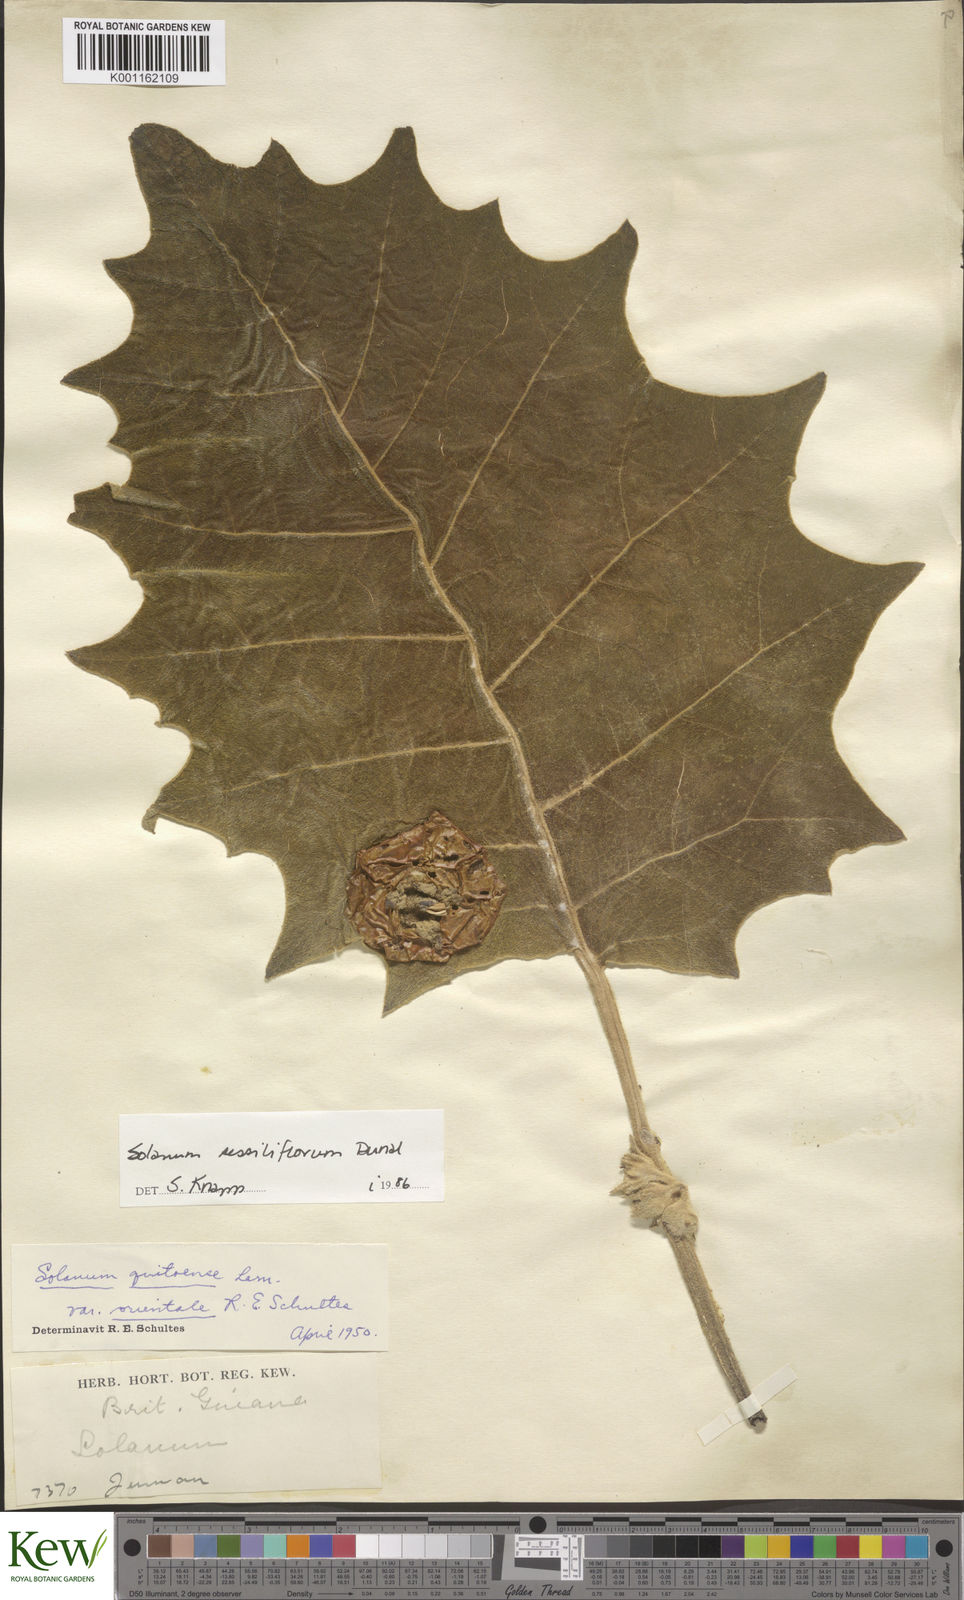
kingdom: Plantae
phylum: Tracheophyta
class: Magnoliopsida
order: Solanales
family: Solanaceae
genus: Solanum
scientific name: Solanum sessiliflorum
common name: Orinoco-apple
